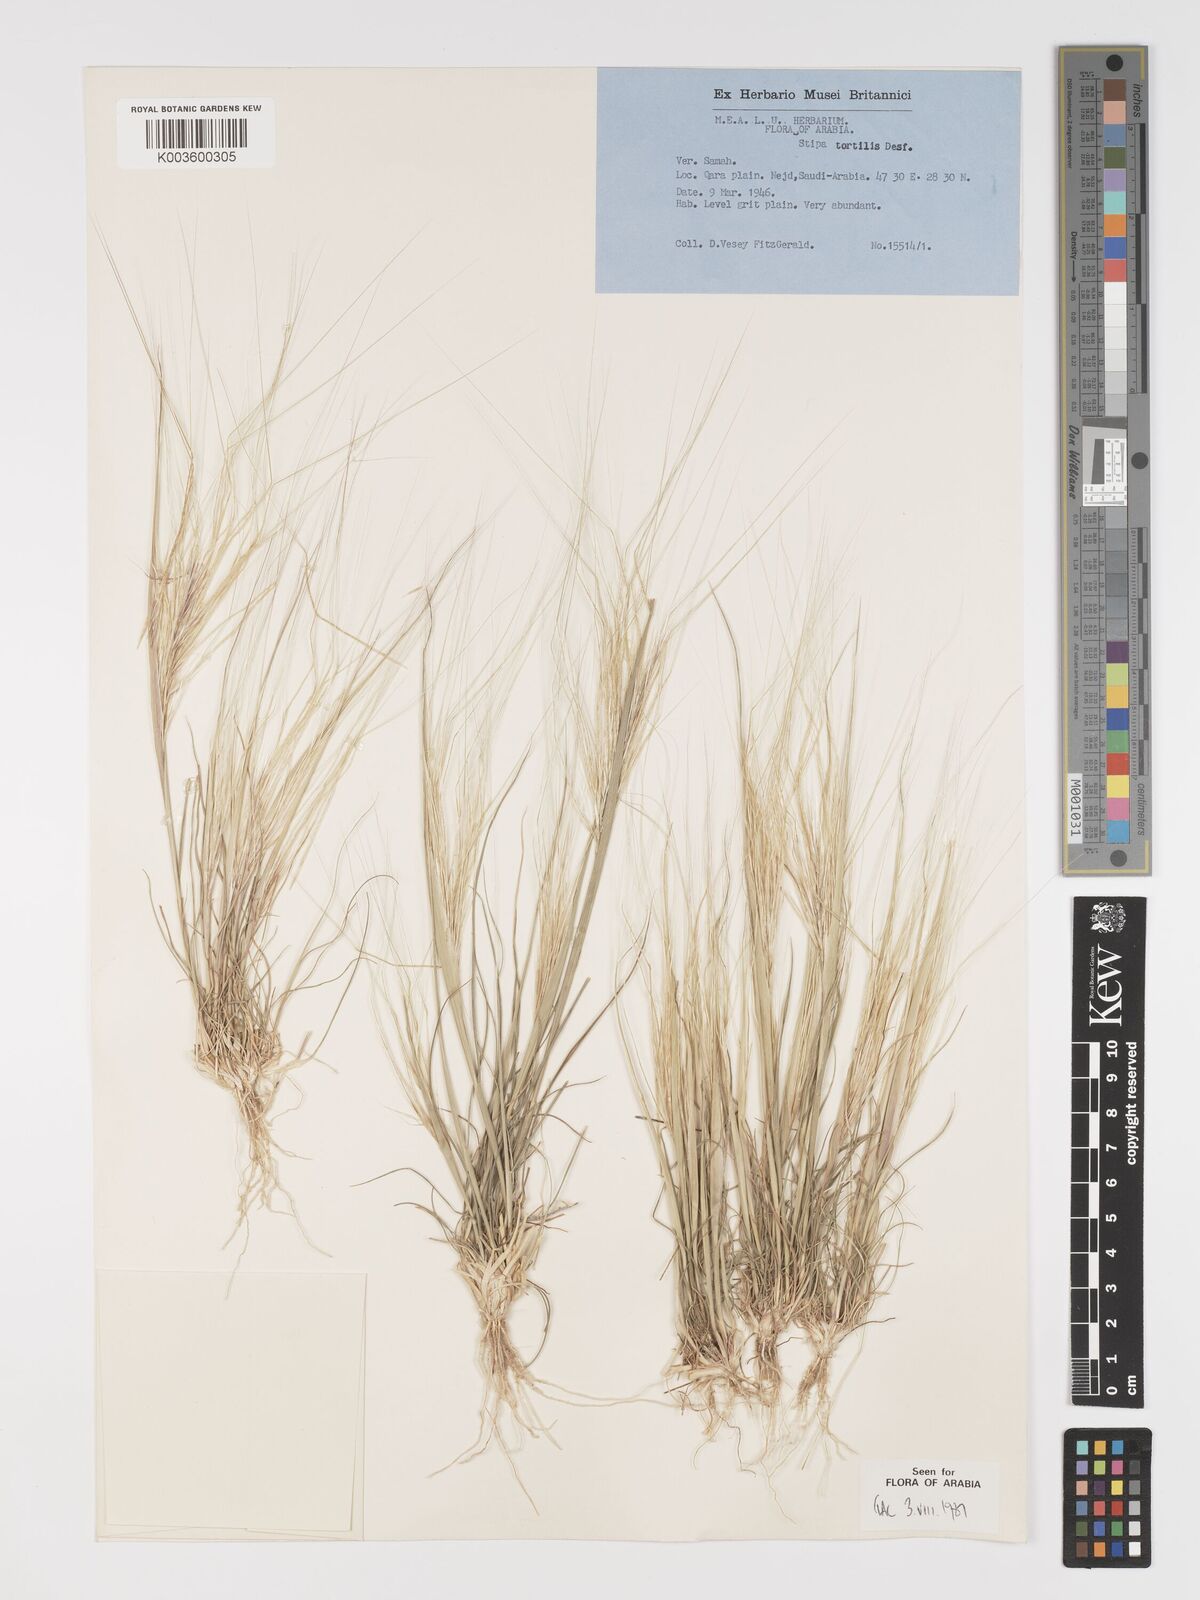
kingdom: Plantae
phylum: Tracheophyta
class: Liliopsida
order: Poales
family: Poaceae
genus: Stipellula
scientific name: Stipellula capensis
